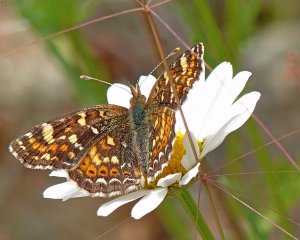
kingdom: Animalia
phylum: Arthropoda
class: Insecta
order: Lepidoptera
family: Nymphalidae
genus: Phyciodes
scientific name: Phyciodes tharos
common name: Field Crescent
